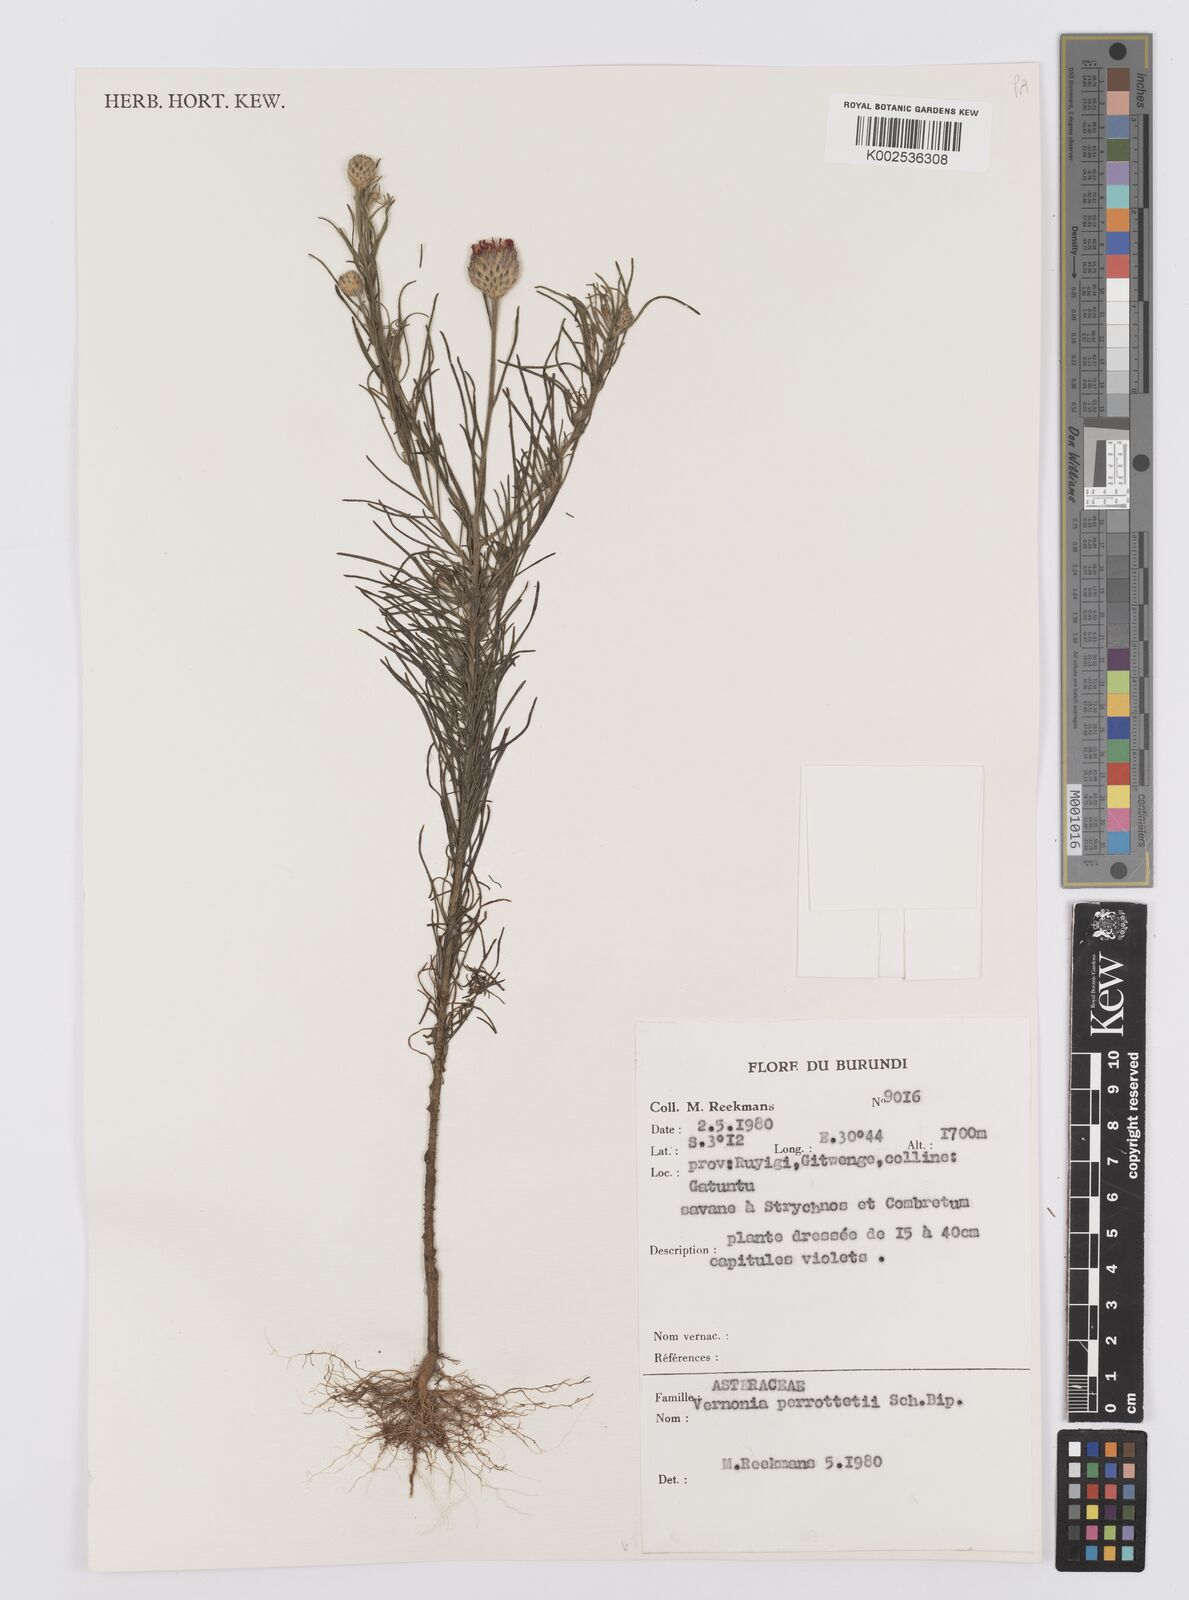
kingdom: Plantae
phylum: Tracheophyta
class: Magnoliopsida
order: Asterales
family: Asteraceae
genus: Crystallopollen
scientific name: Crystallopollen serratuloides
